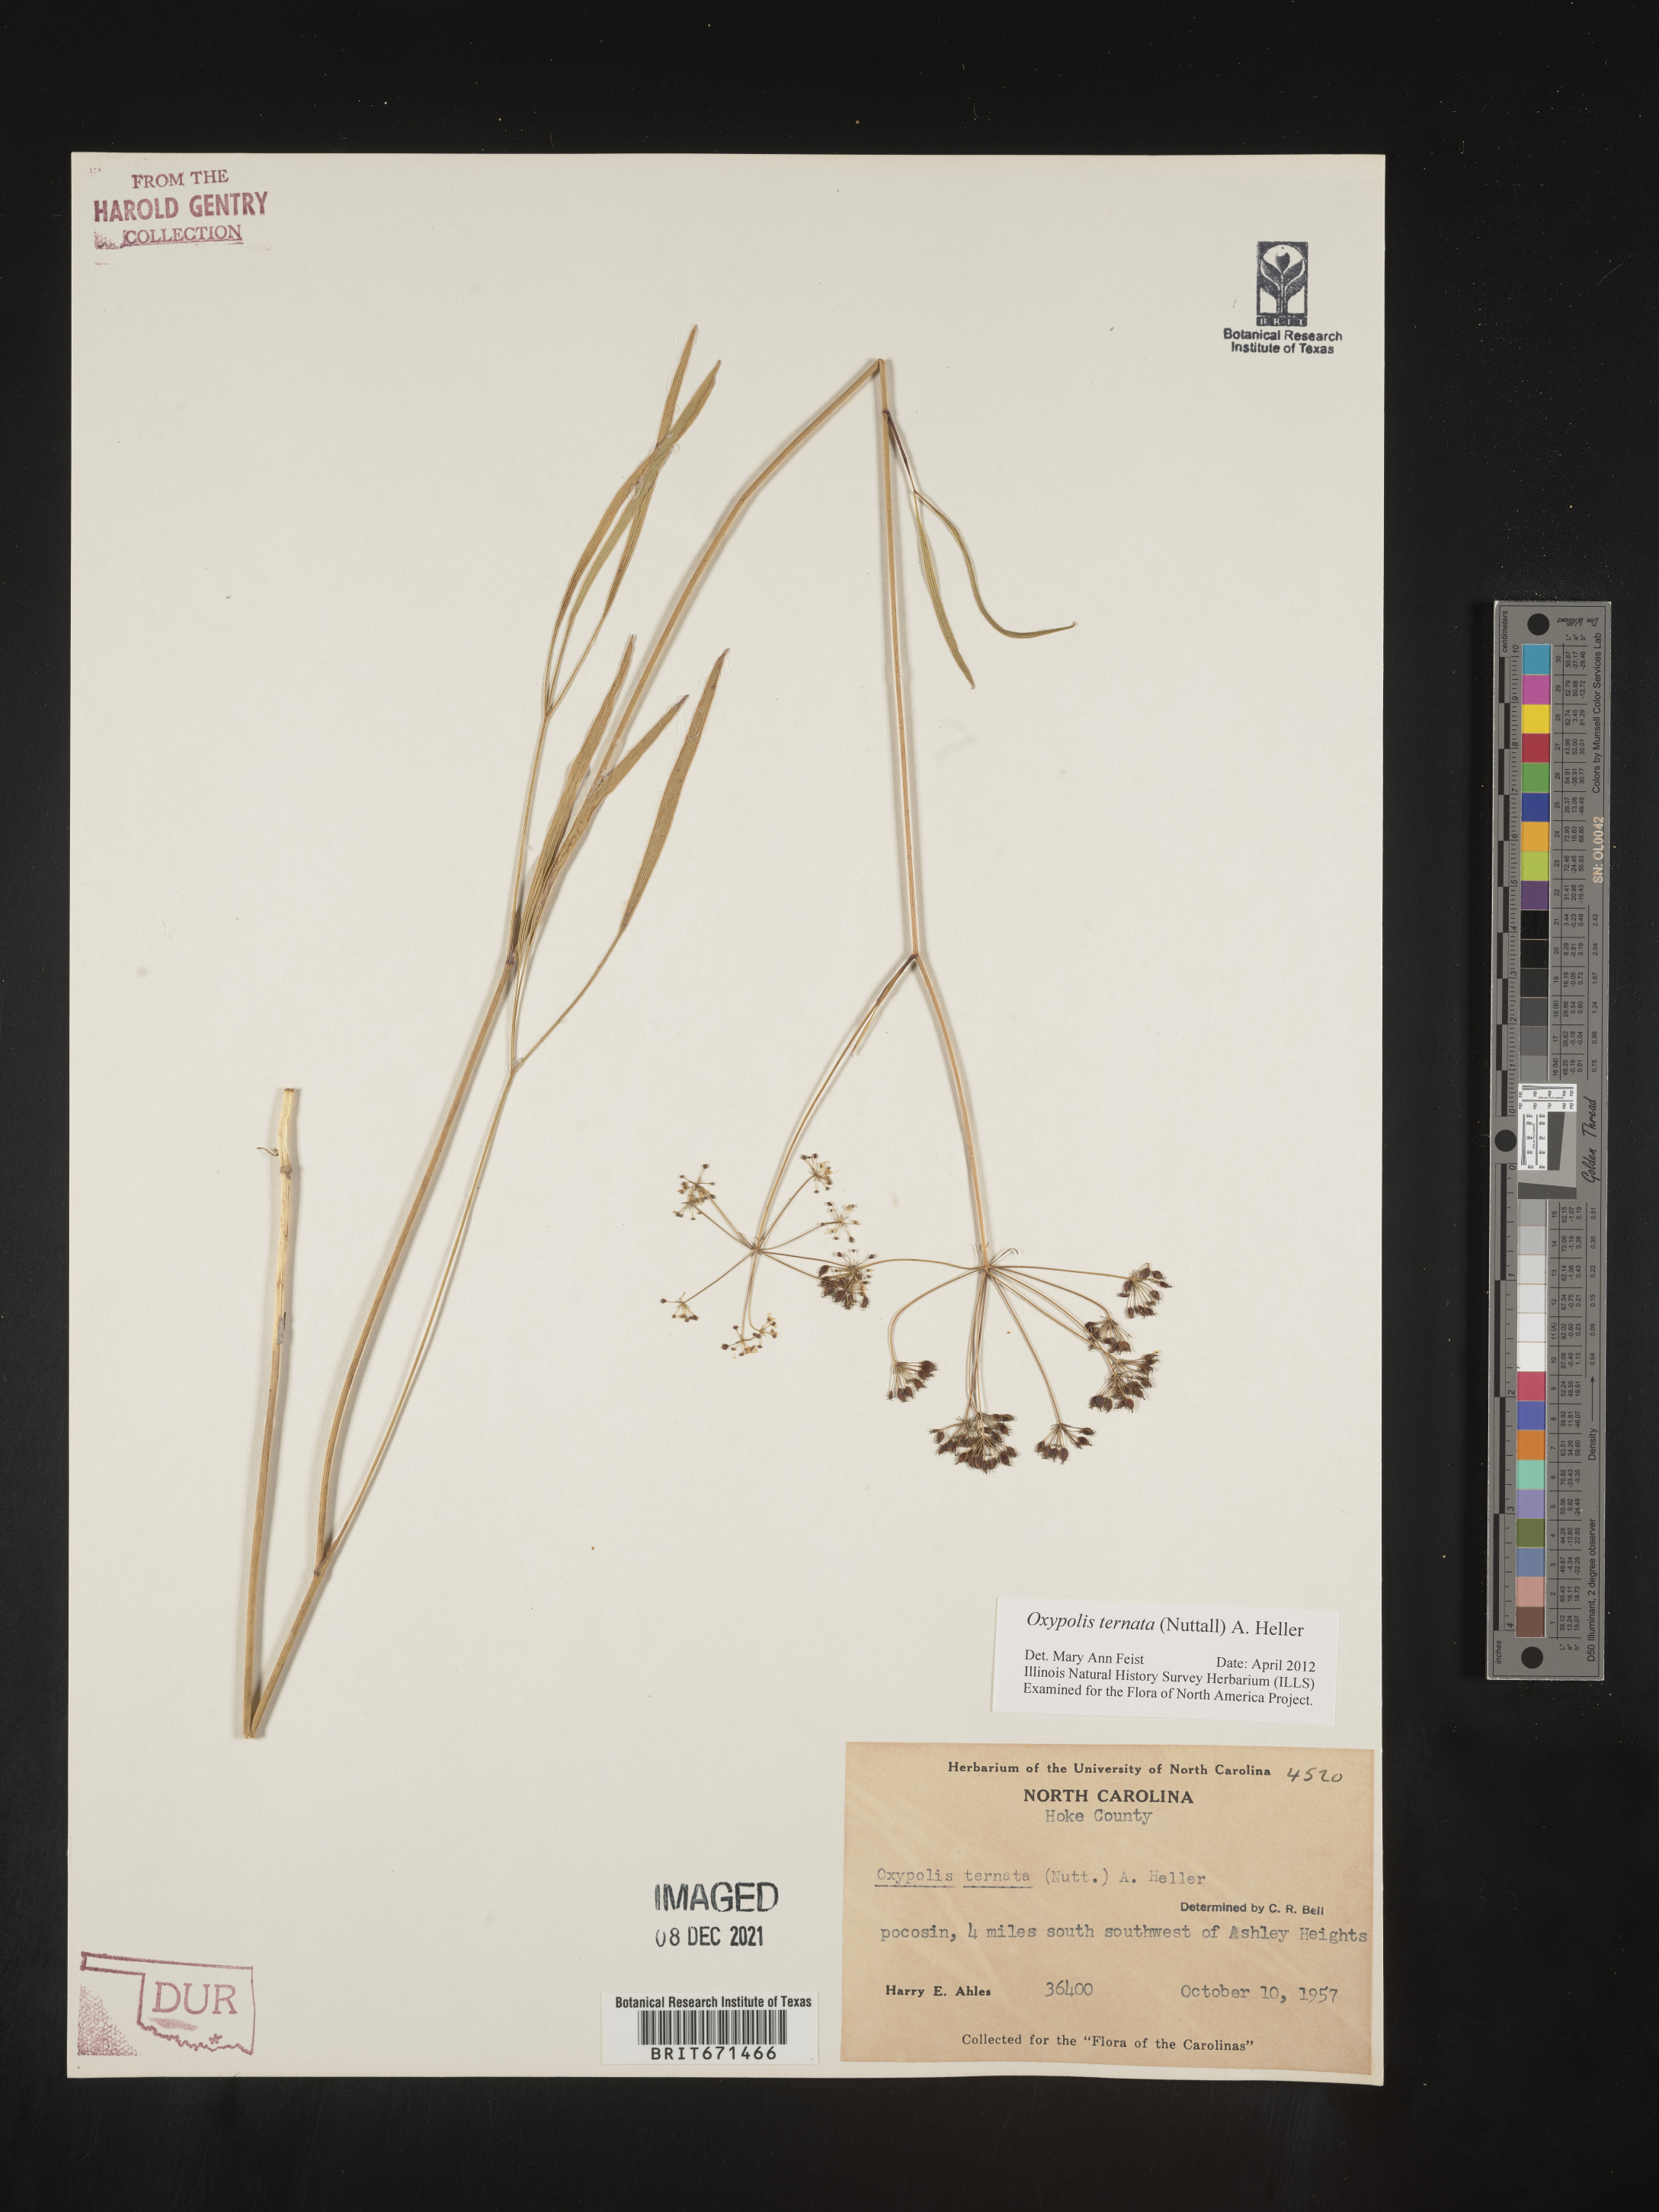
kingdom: Plantae
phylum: Tracheophyta
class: Magnoliopsida
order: Apiales
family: Apiaceae
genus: Oxypolis
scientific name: Oxypolis ternata
